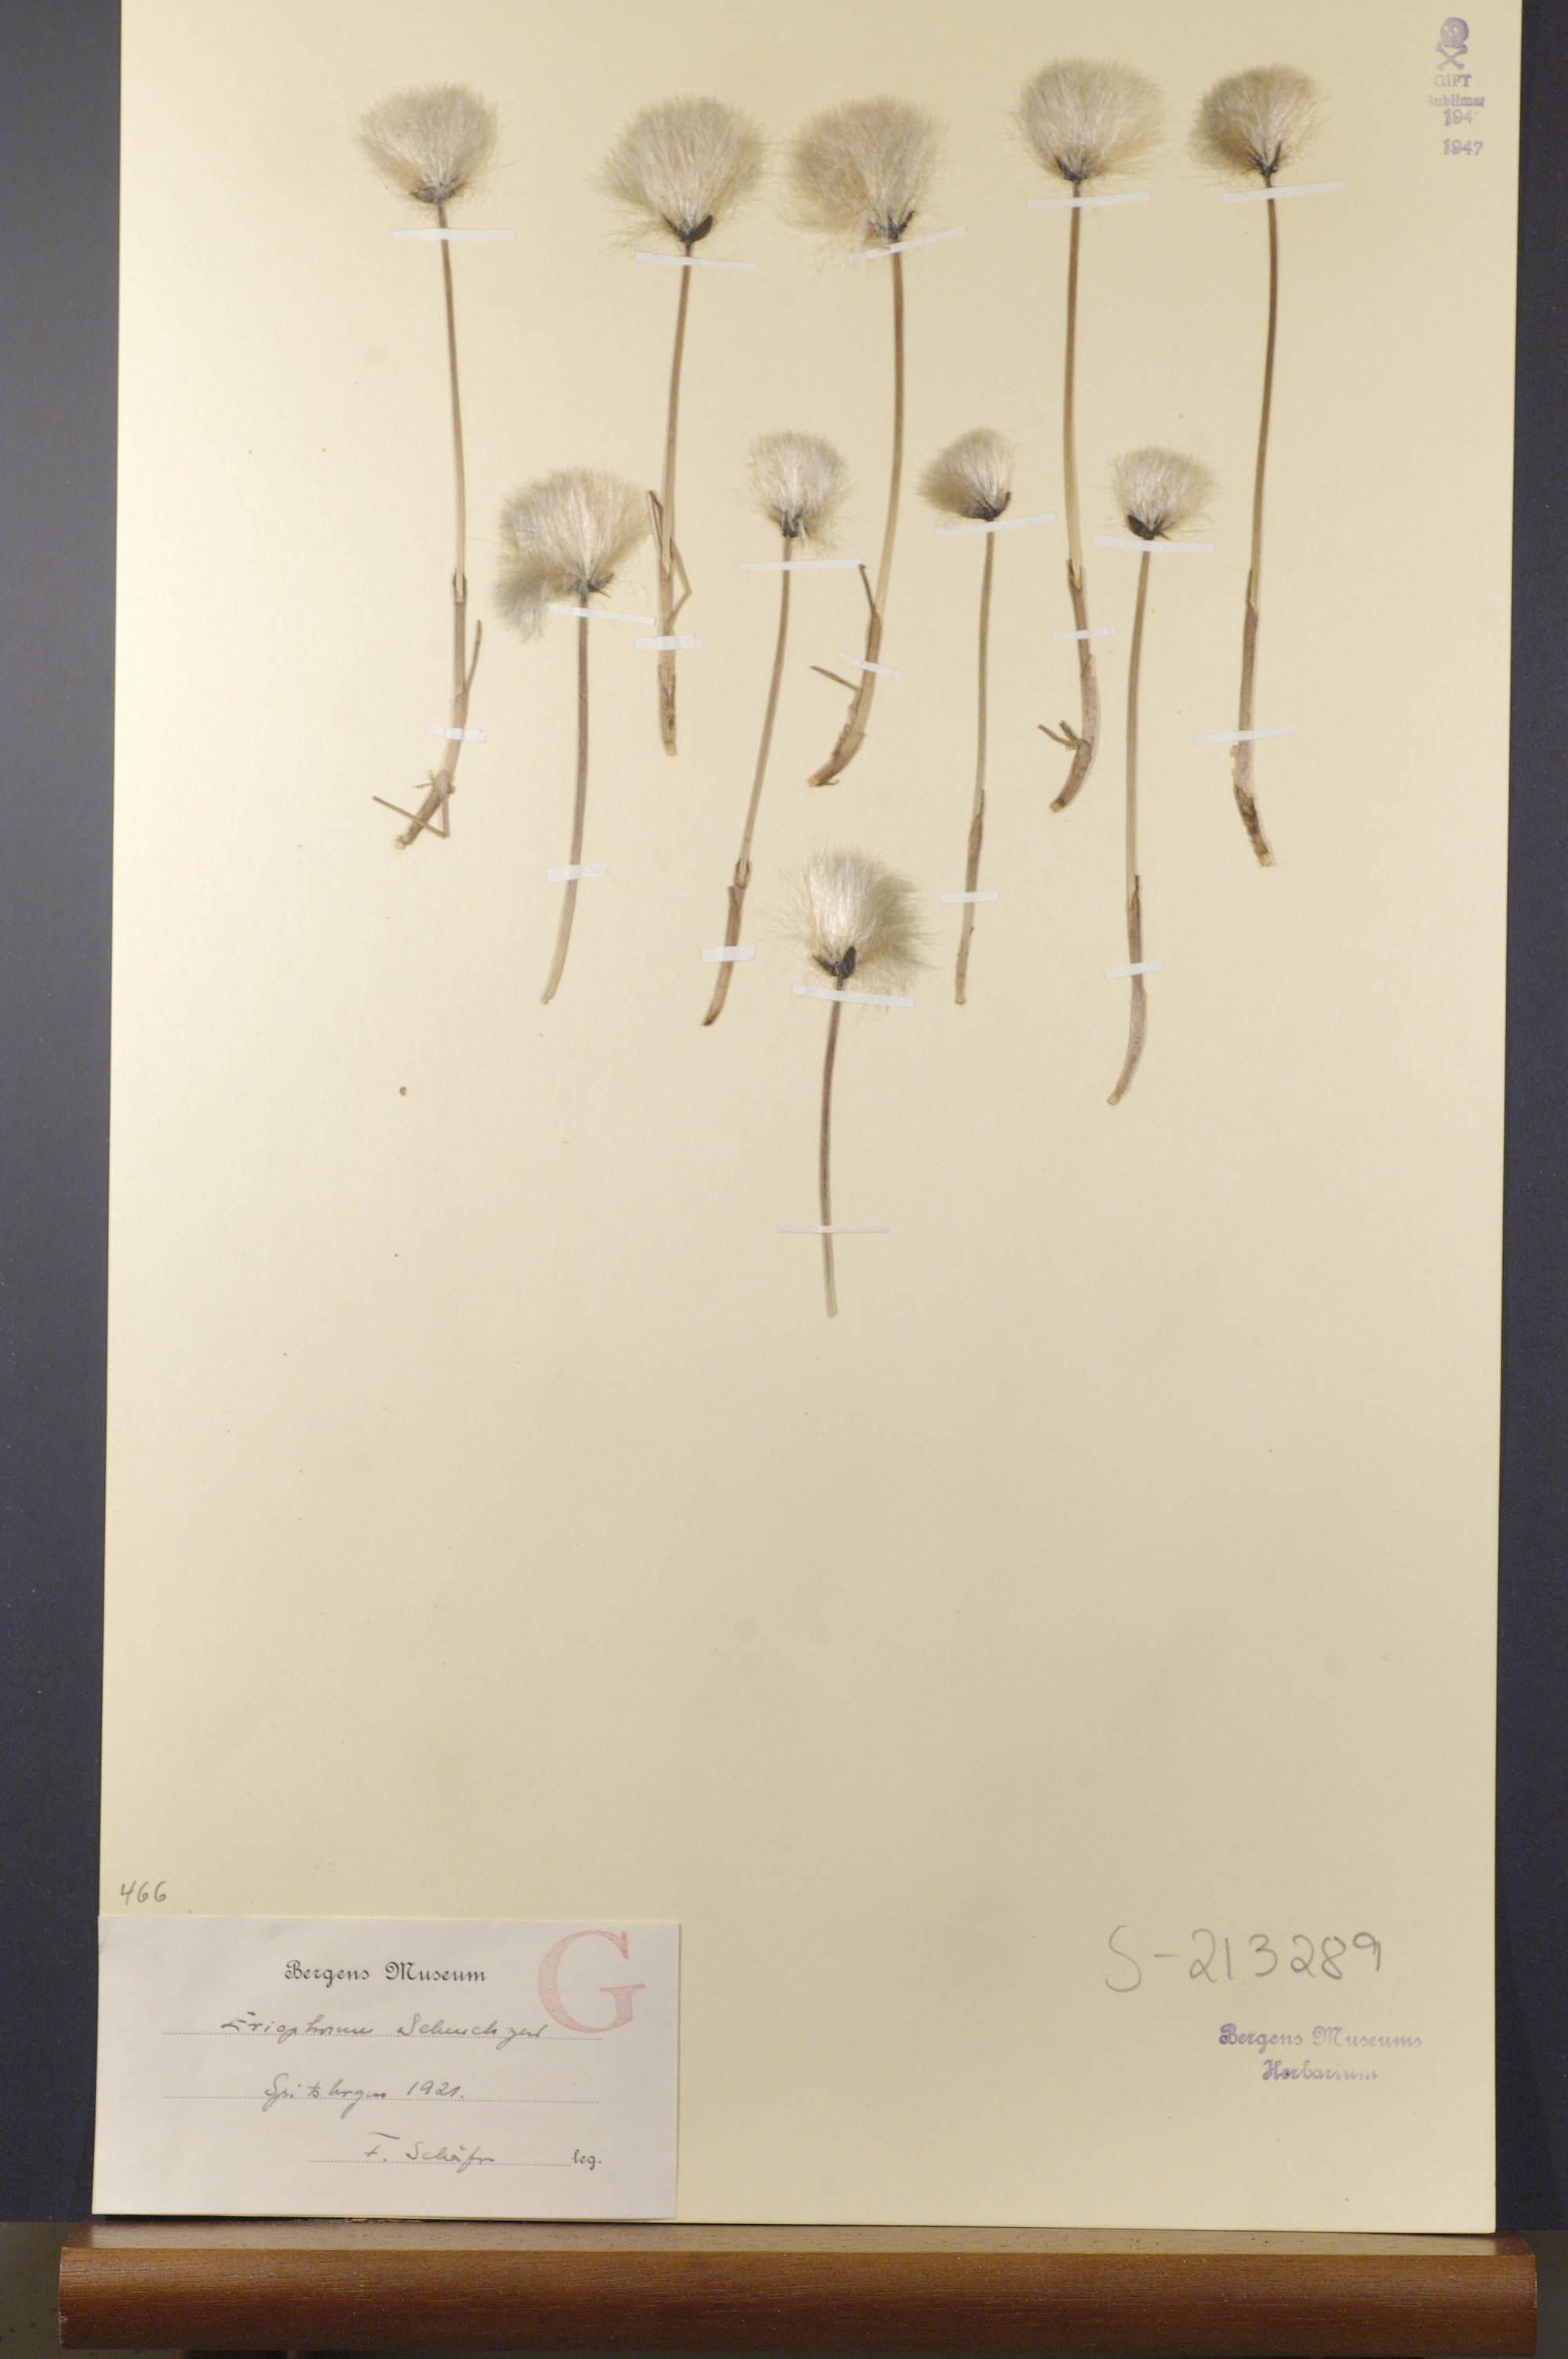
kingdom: Plantae
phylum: Tracheophyta
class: Liliopsida
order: Poales
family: Cyperaceae
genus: Eriophorum
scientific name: Eriophorum scheuchzeri
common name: Scheuchzer's cottongrass
